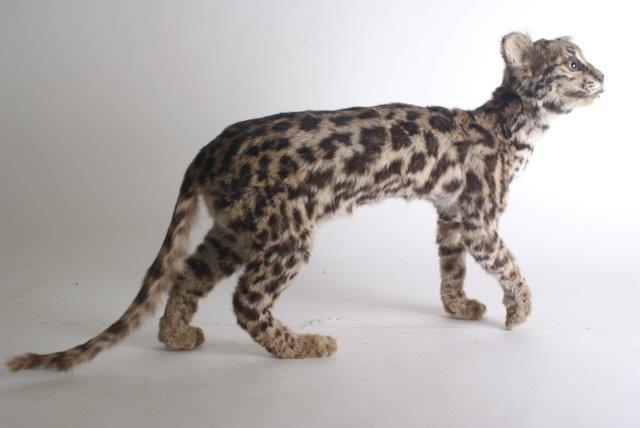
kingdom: Animalia
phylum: Chordata
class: Mammalia
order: Carnivora
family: Felidae
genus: Leopardus
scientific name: Leopardus pardalis
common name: Ocelot
